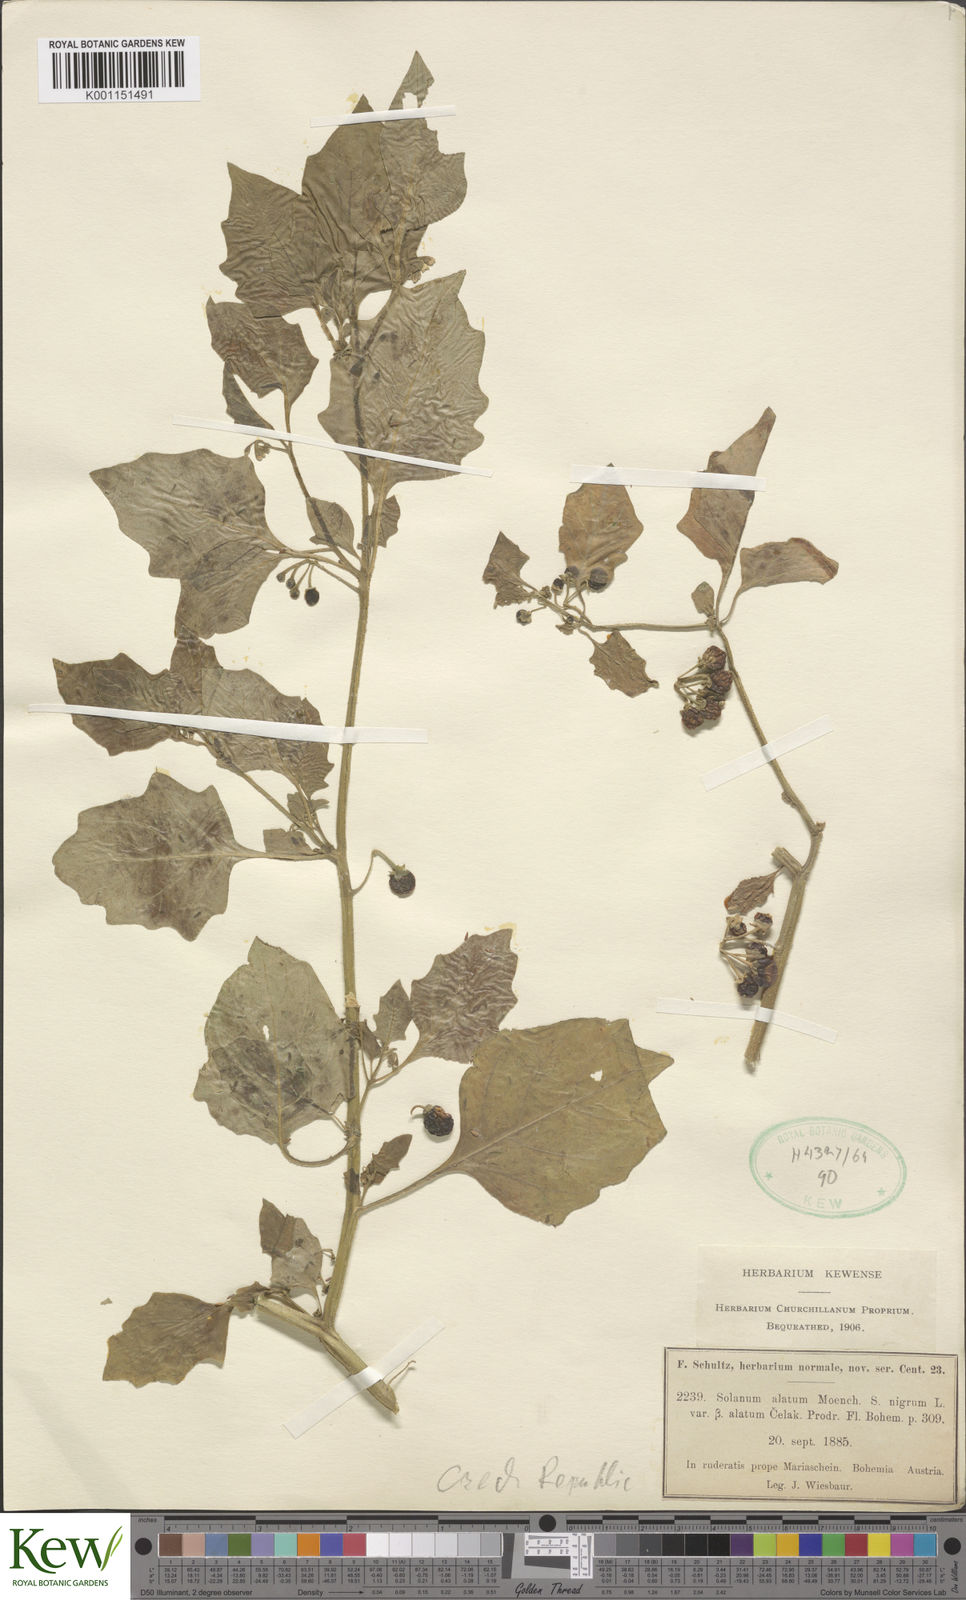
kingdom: Plantae
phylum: Tracheophyta
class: Magnoliopsida
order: Solanales
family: Solanaceae
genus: Solanum
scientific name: Solanum alatum
